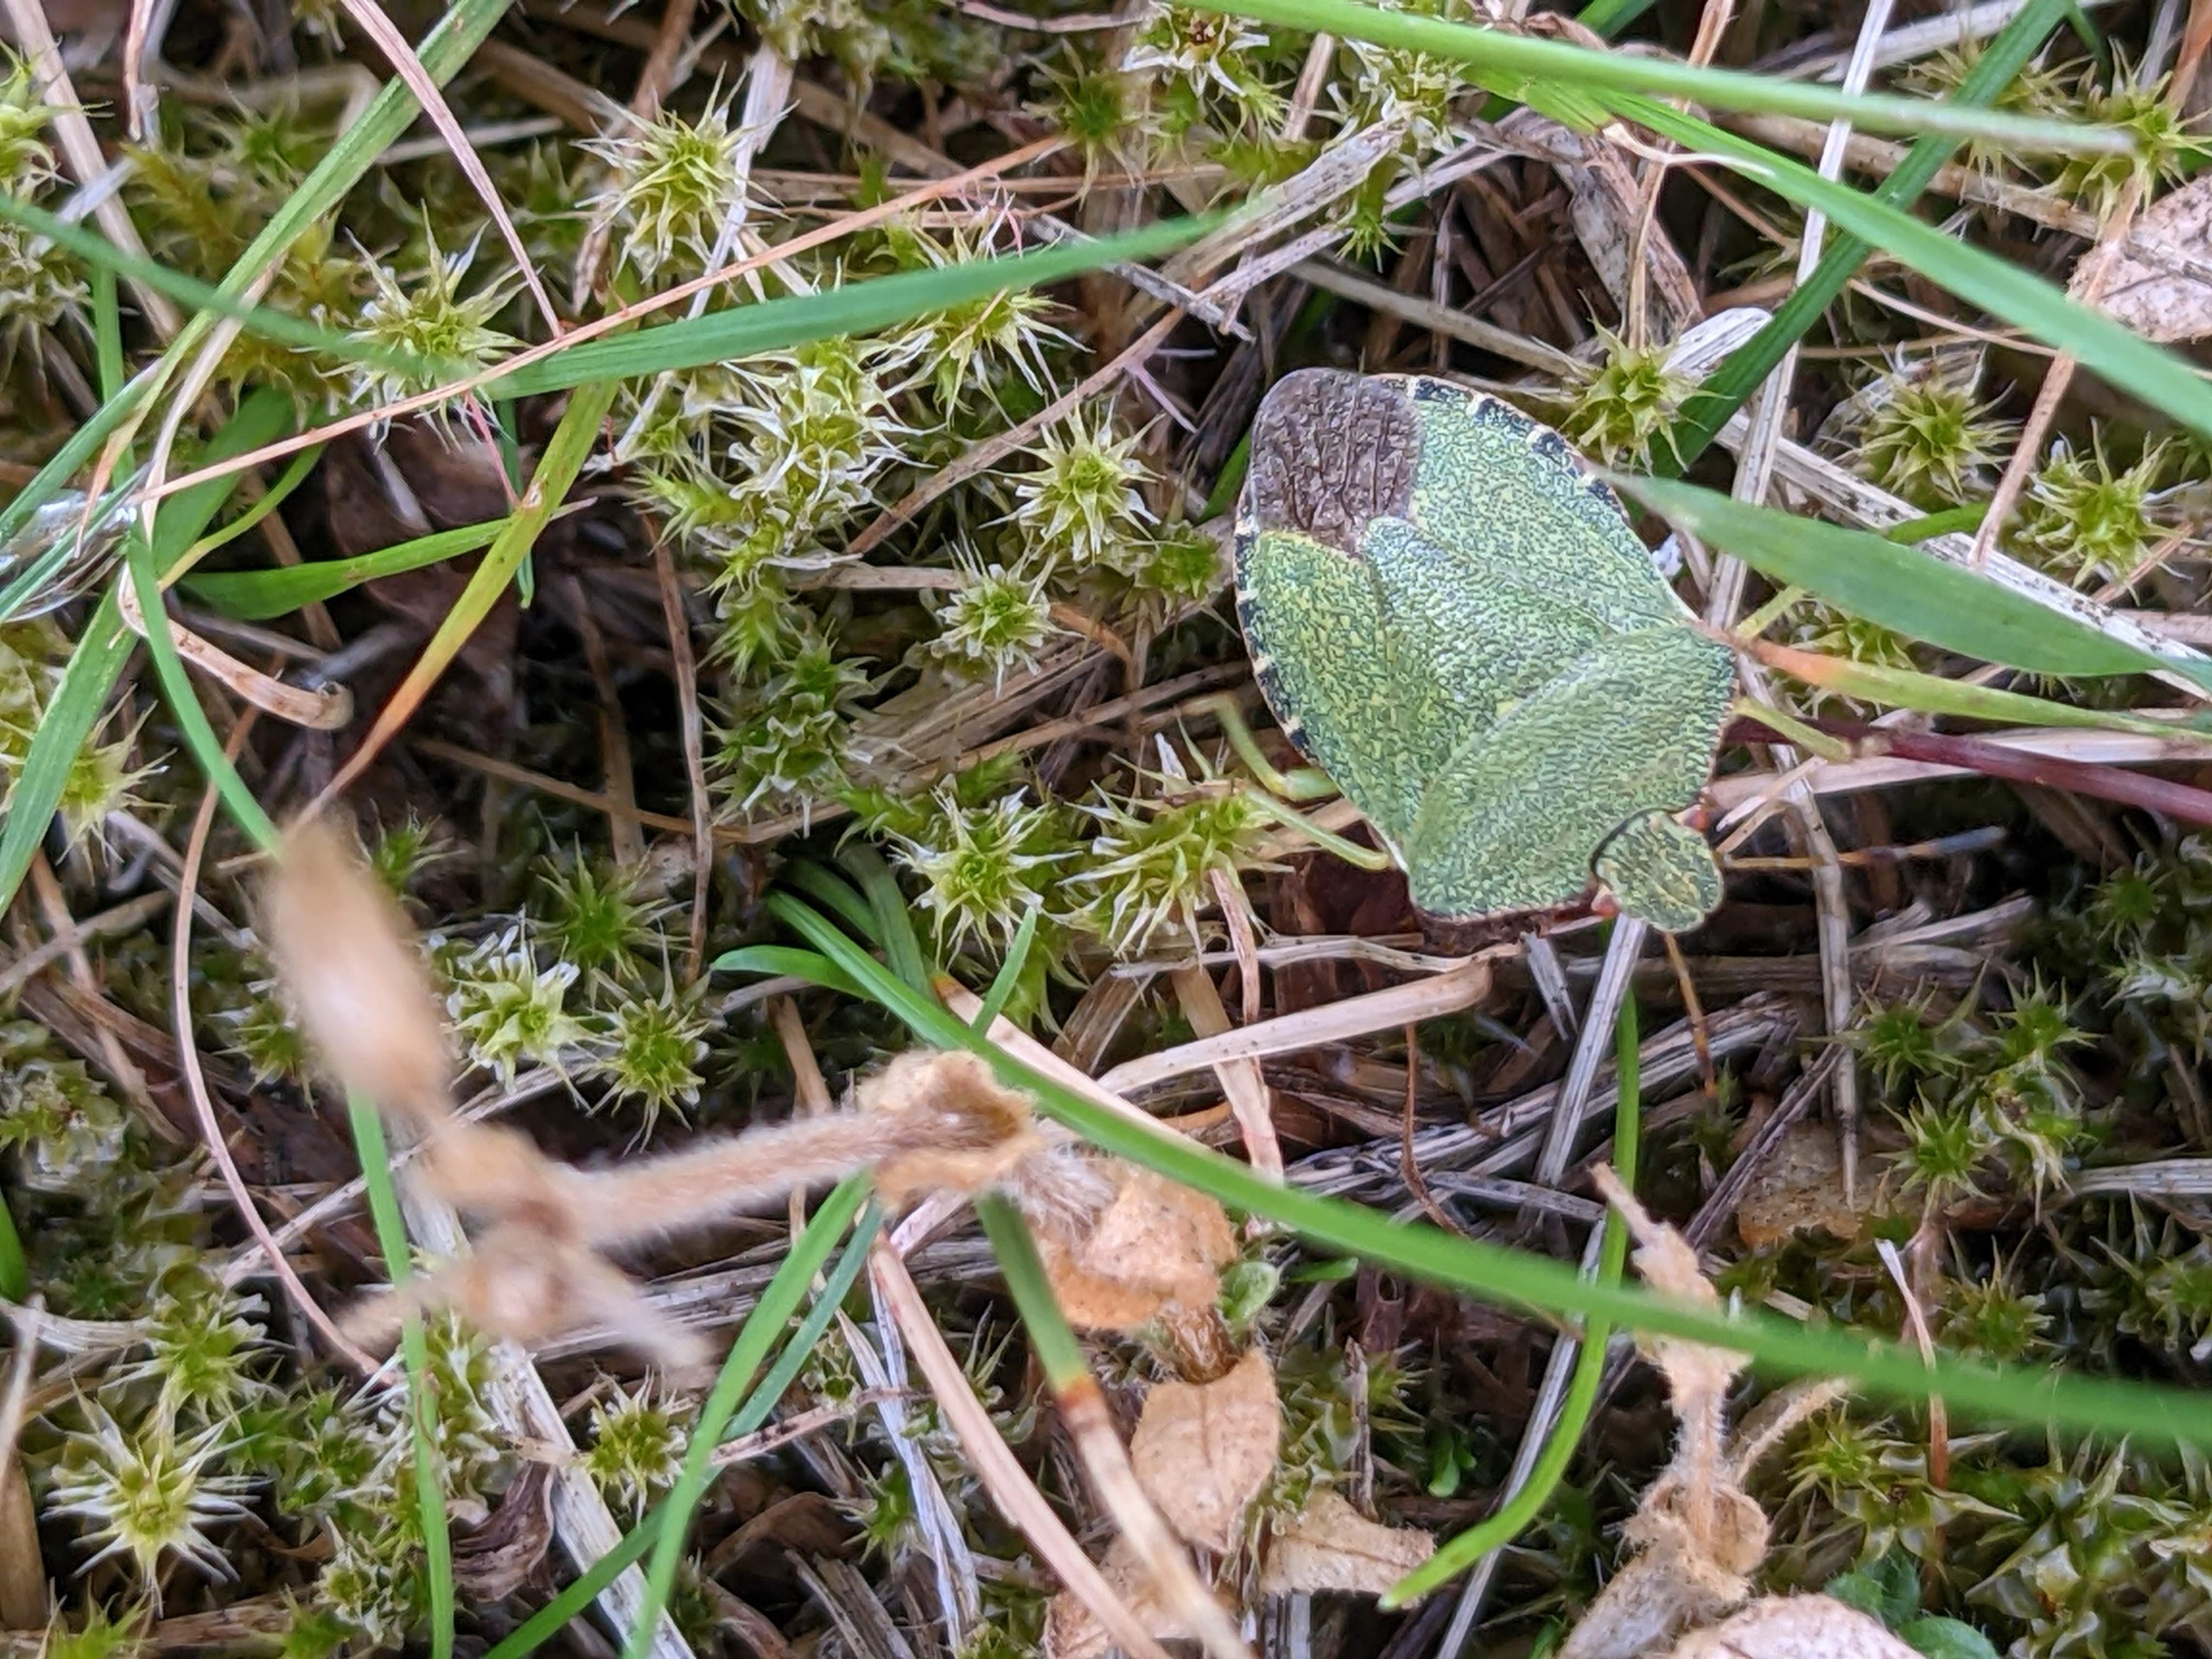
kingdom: Animalia
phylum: Arthropoda
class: Insecta
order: Hemiptera
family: Pentatomidae
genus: Palomena
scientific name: Palomena prasina
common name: Grøn bredtæge
